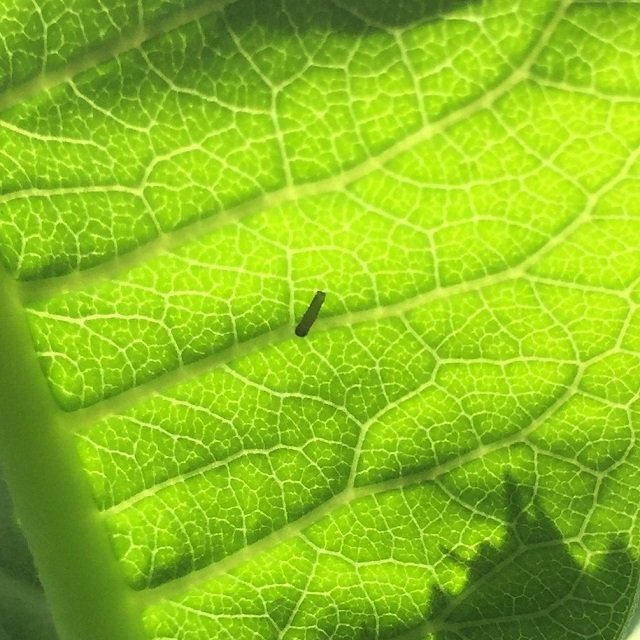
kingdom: Animalia
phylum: Arthropoda
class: Insecta
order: Lepidoptera
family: Nymphalidae
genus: Danaus
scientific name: Danaus plexippus
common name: Monarch
